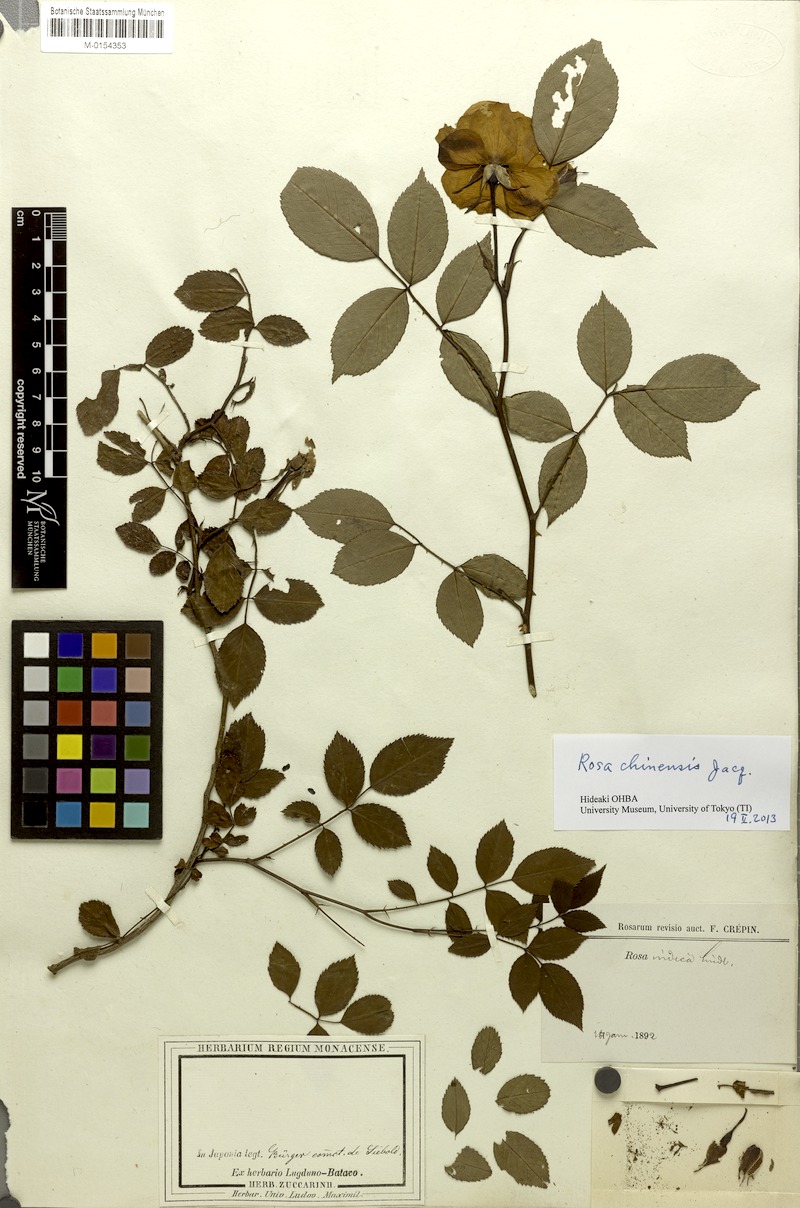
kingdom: Plantae
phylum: Tracheophyta
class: Magnoliopsida
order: Rosales
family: Rosaceae
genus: Rosa
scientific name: Rosa chinensis
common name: China rose
